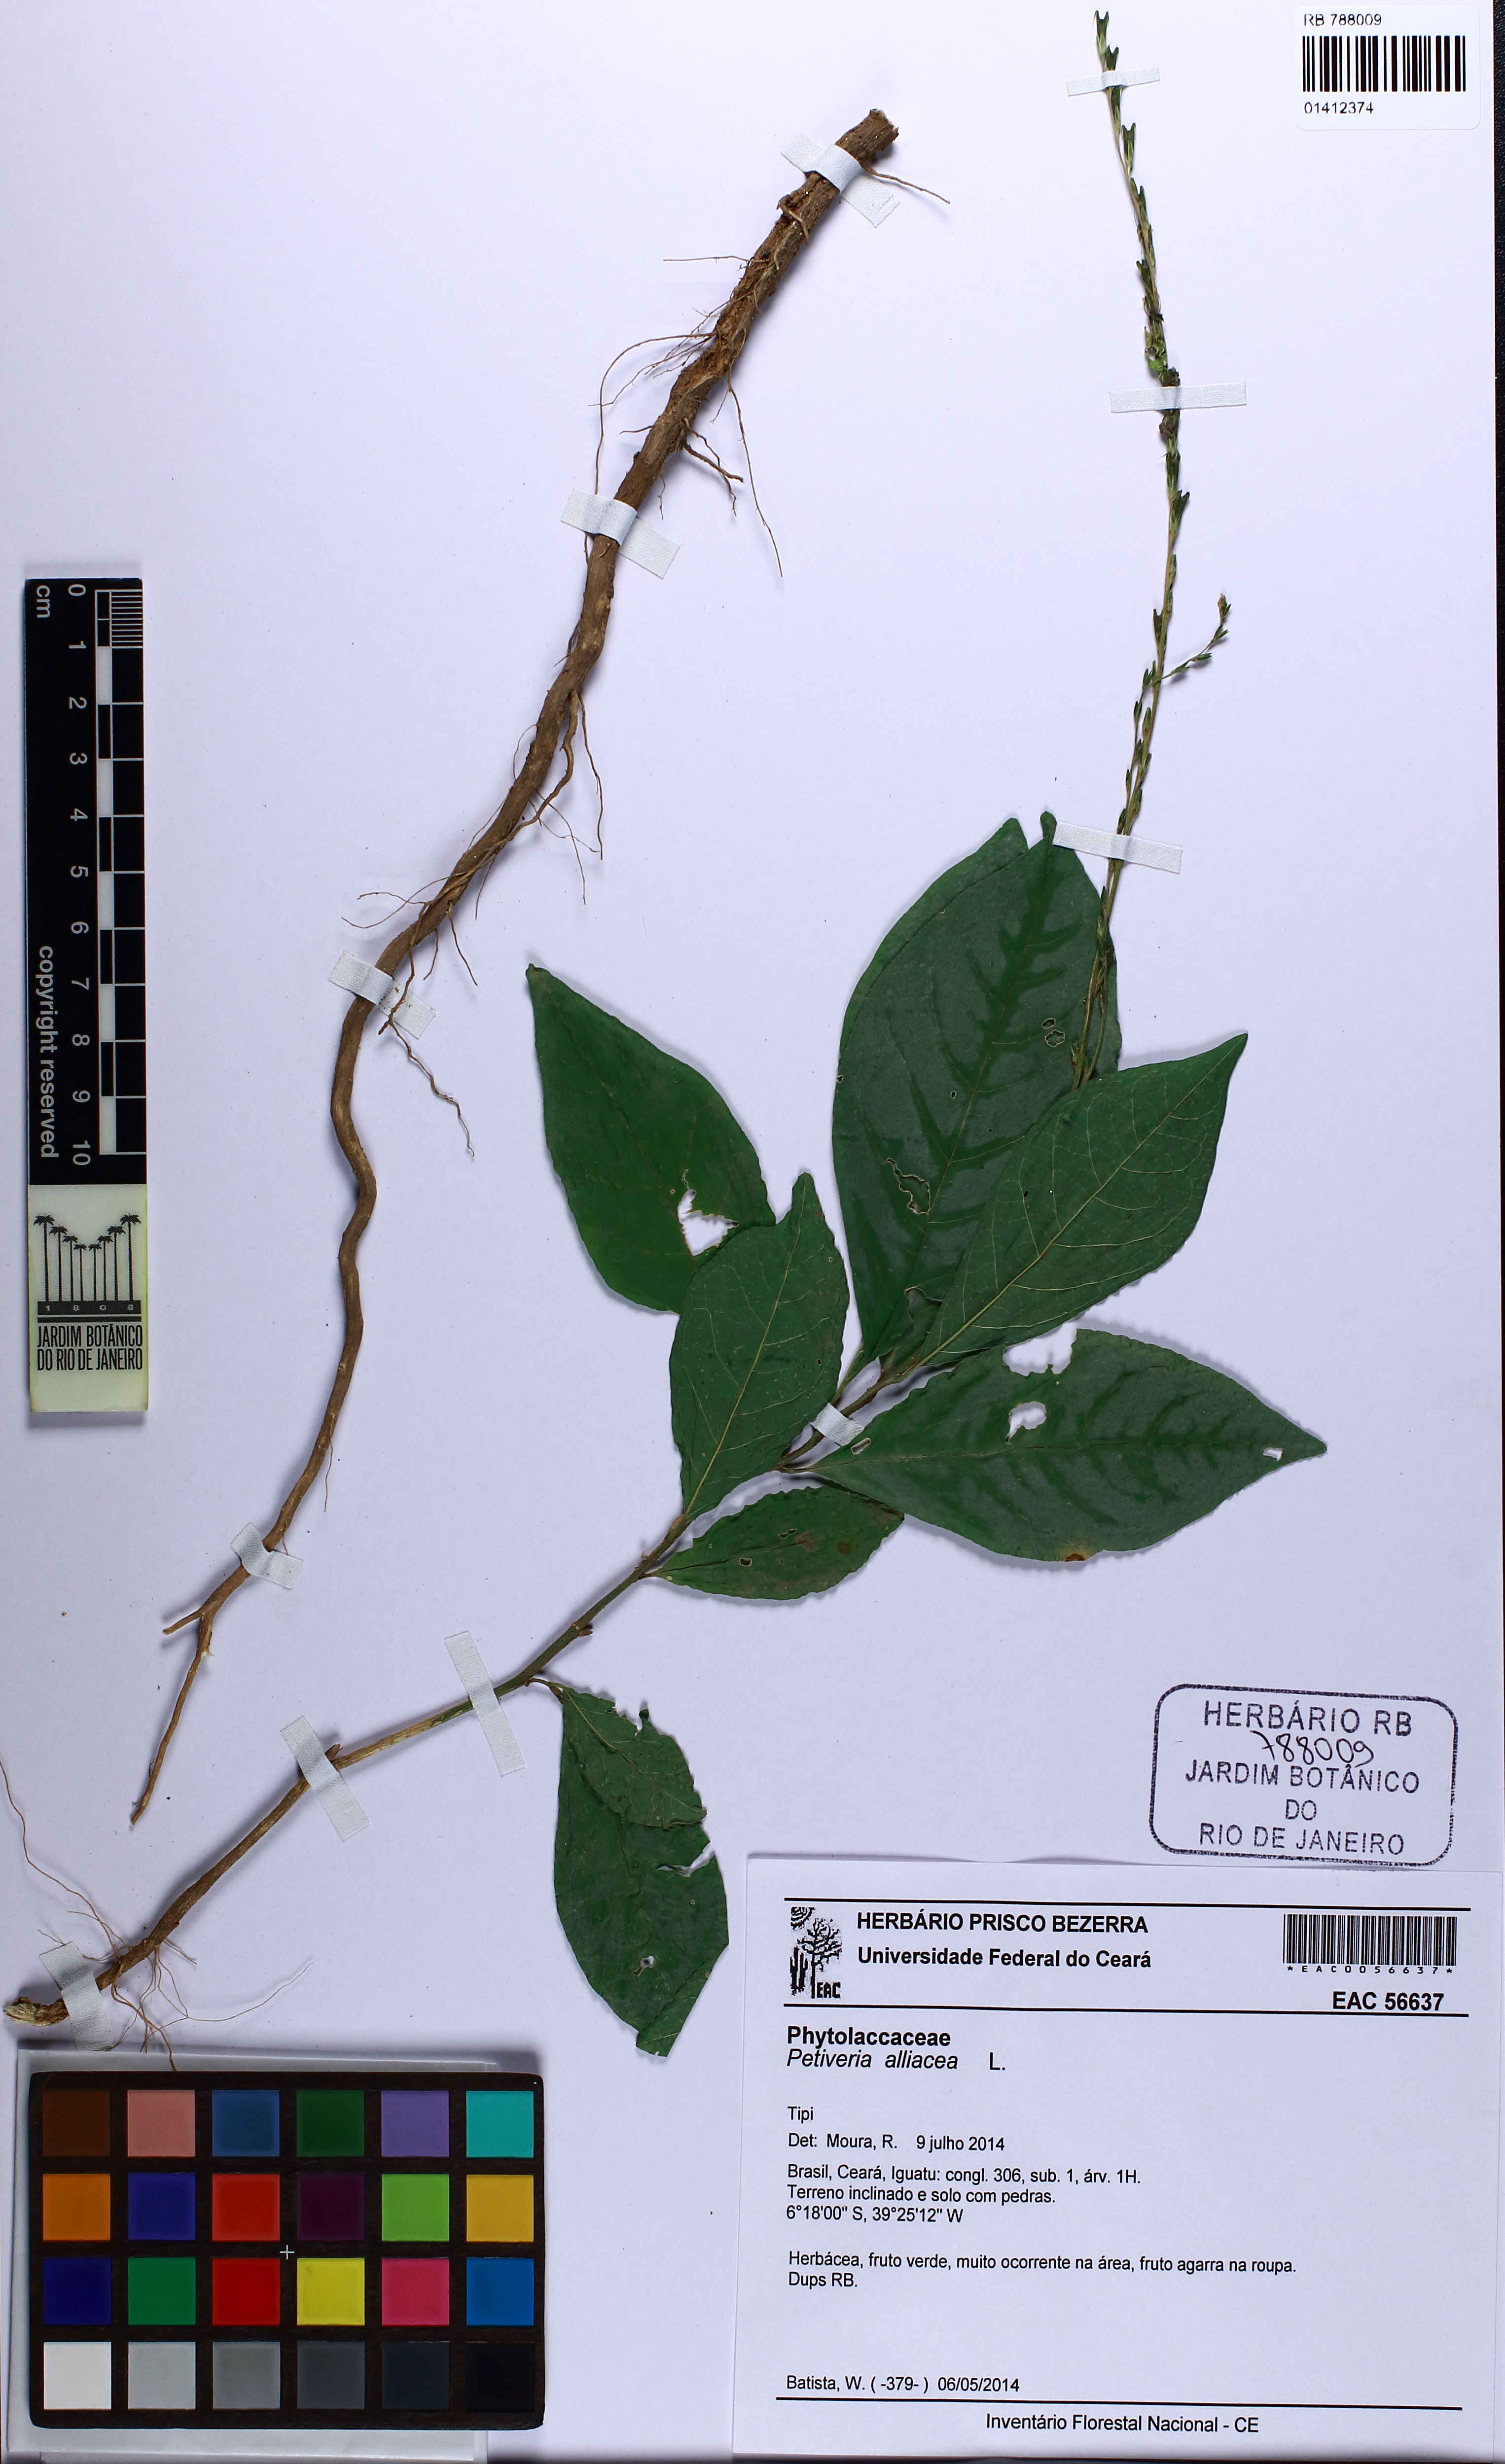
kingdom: Plantae
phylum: Tracheophyta
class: Magnoliopsida
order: Caryophyllales
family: Phytolaccaceae
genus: Petiveria
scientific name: Petiveria alliacea
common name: Garlicweed
